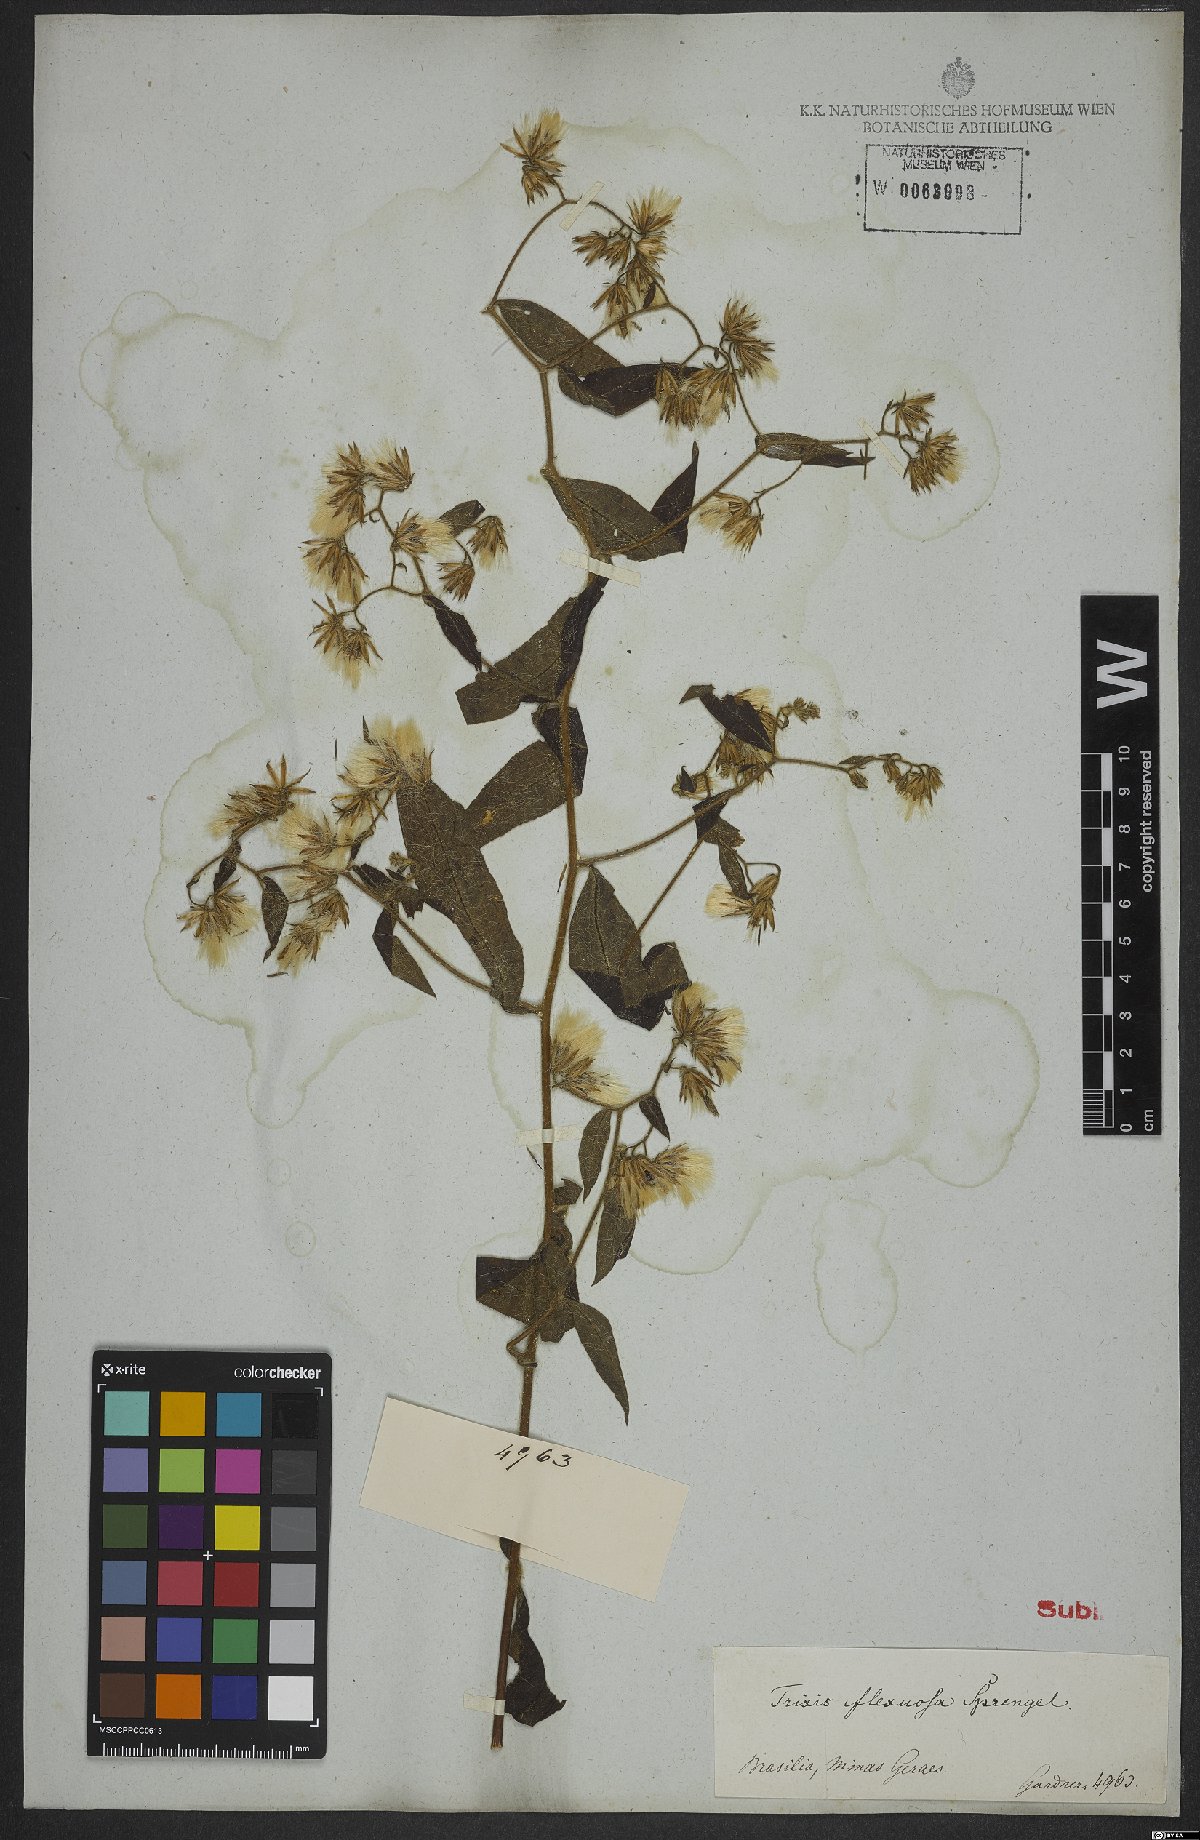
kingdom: Plantae
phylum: Tracheophyta
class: Magnoliopsida
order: Asterales
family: Asteraceae
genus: Trixis
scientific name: Trixis praestans
